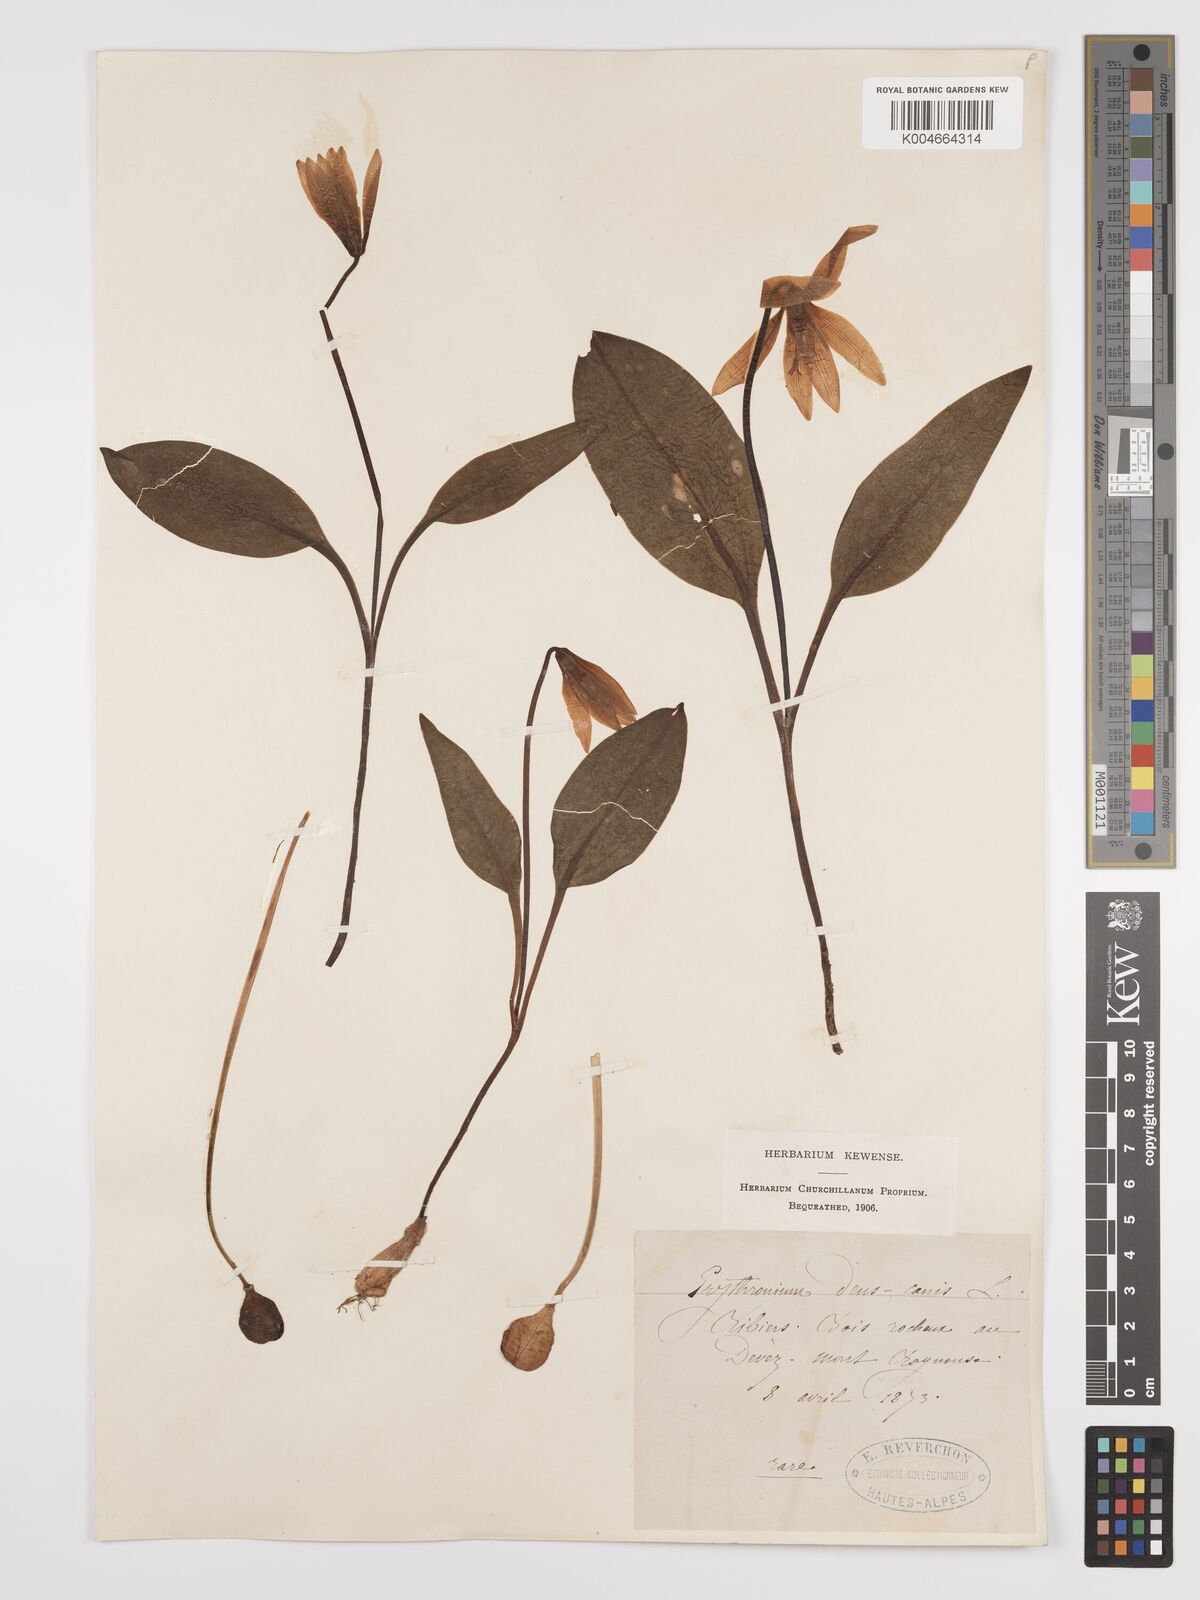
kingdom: Plantae
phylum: Tracheophyta
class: Liliopsida
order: Liliales
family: Liliaceae
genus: Erythronium
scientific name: Erythronium dens-canis
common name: Dog's-tooth-violet
